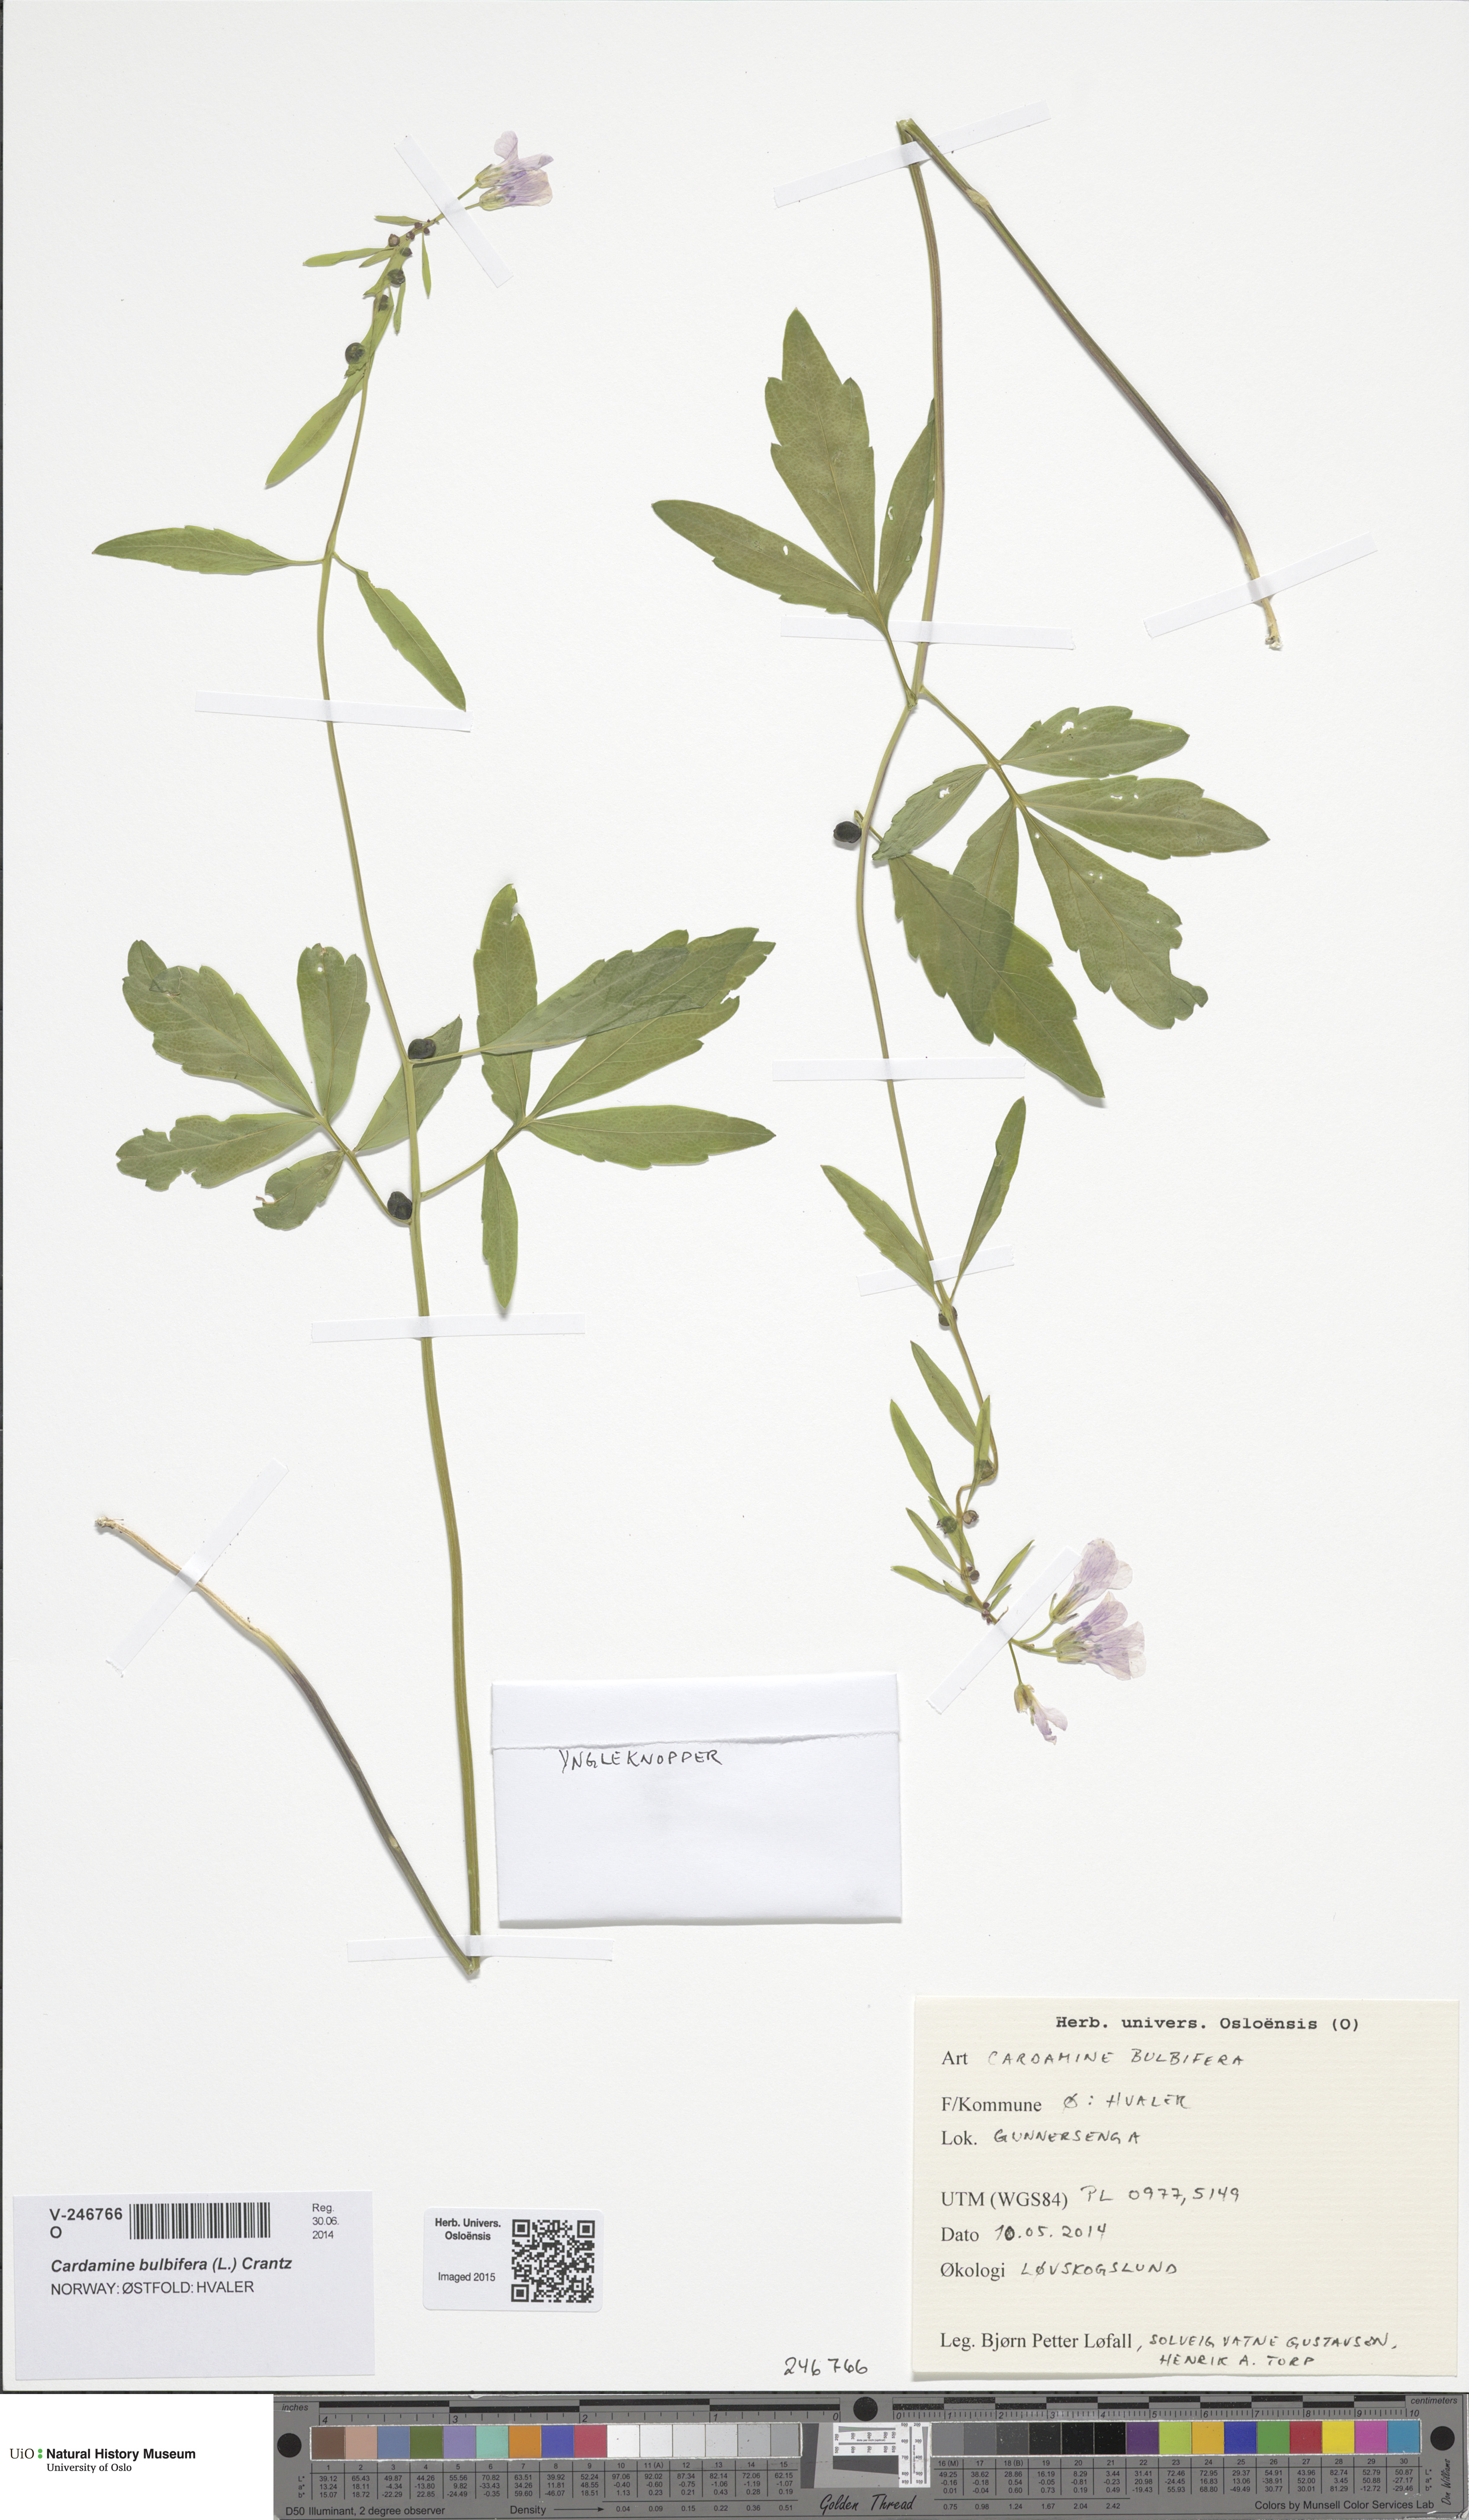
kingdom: Plantae
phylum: Tracheophyta
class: Magnoliopsida
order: Brassicales
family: Brassicaceae
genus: Cardamine
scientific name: Cardamine bulbifera
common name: Coralroot bittercress
